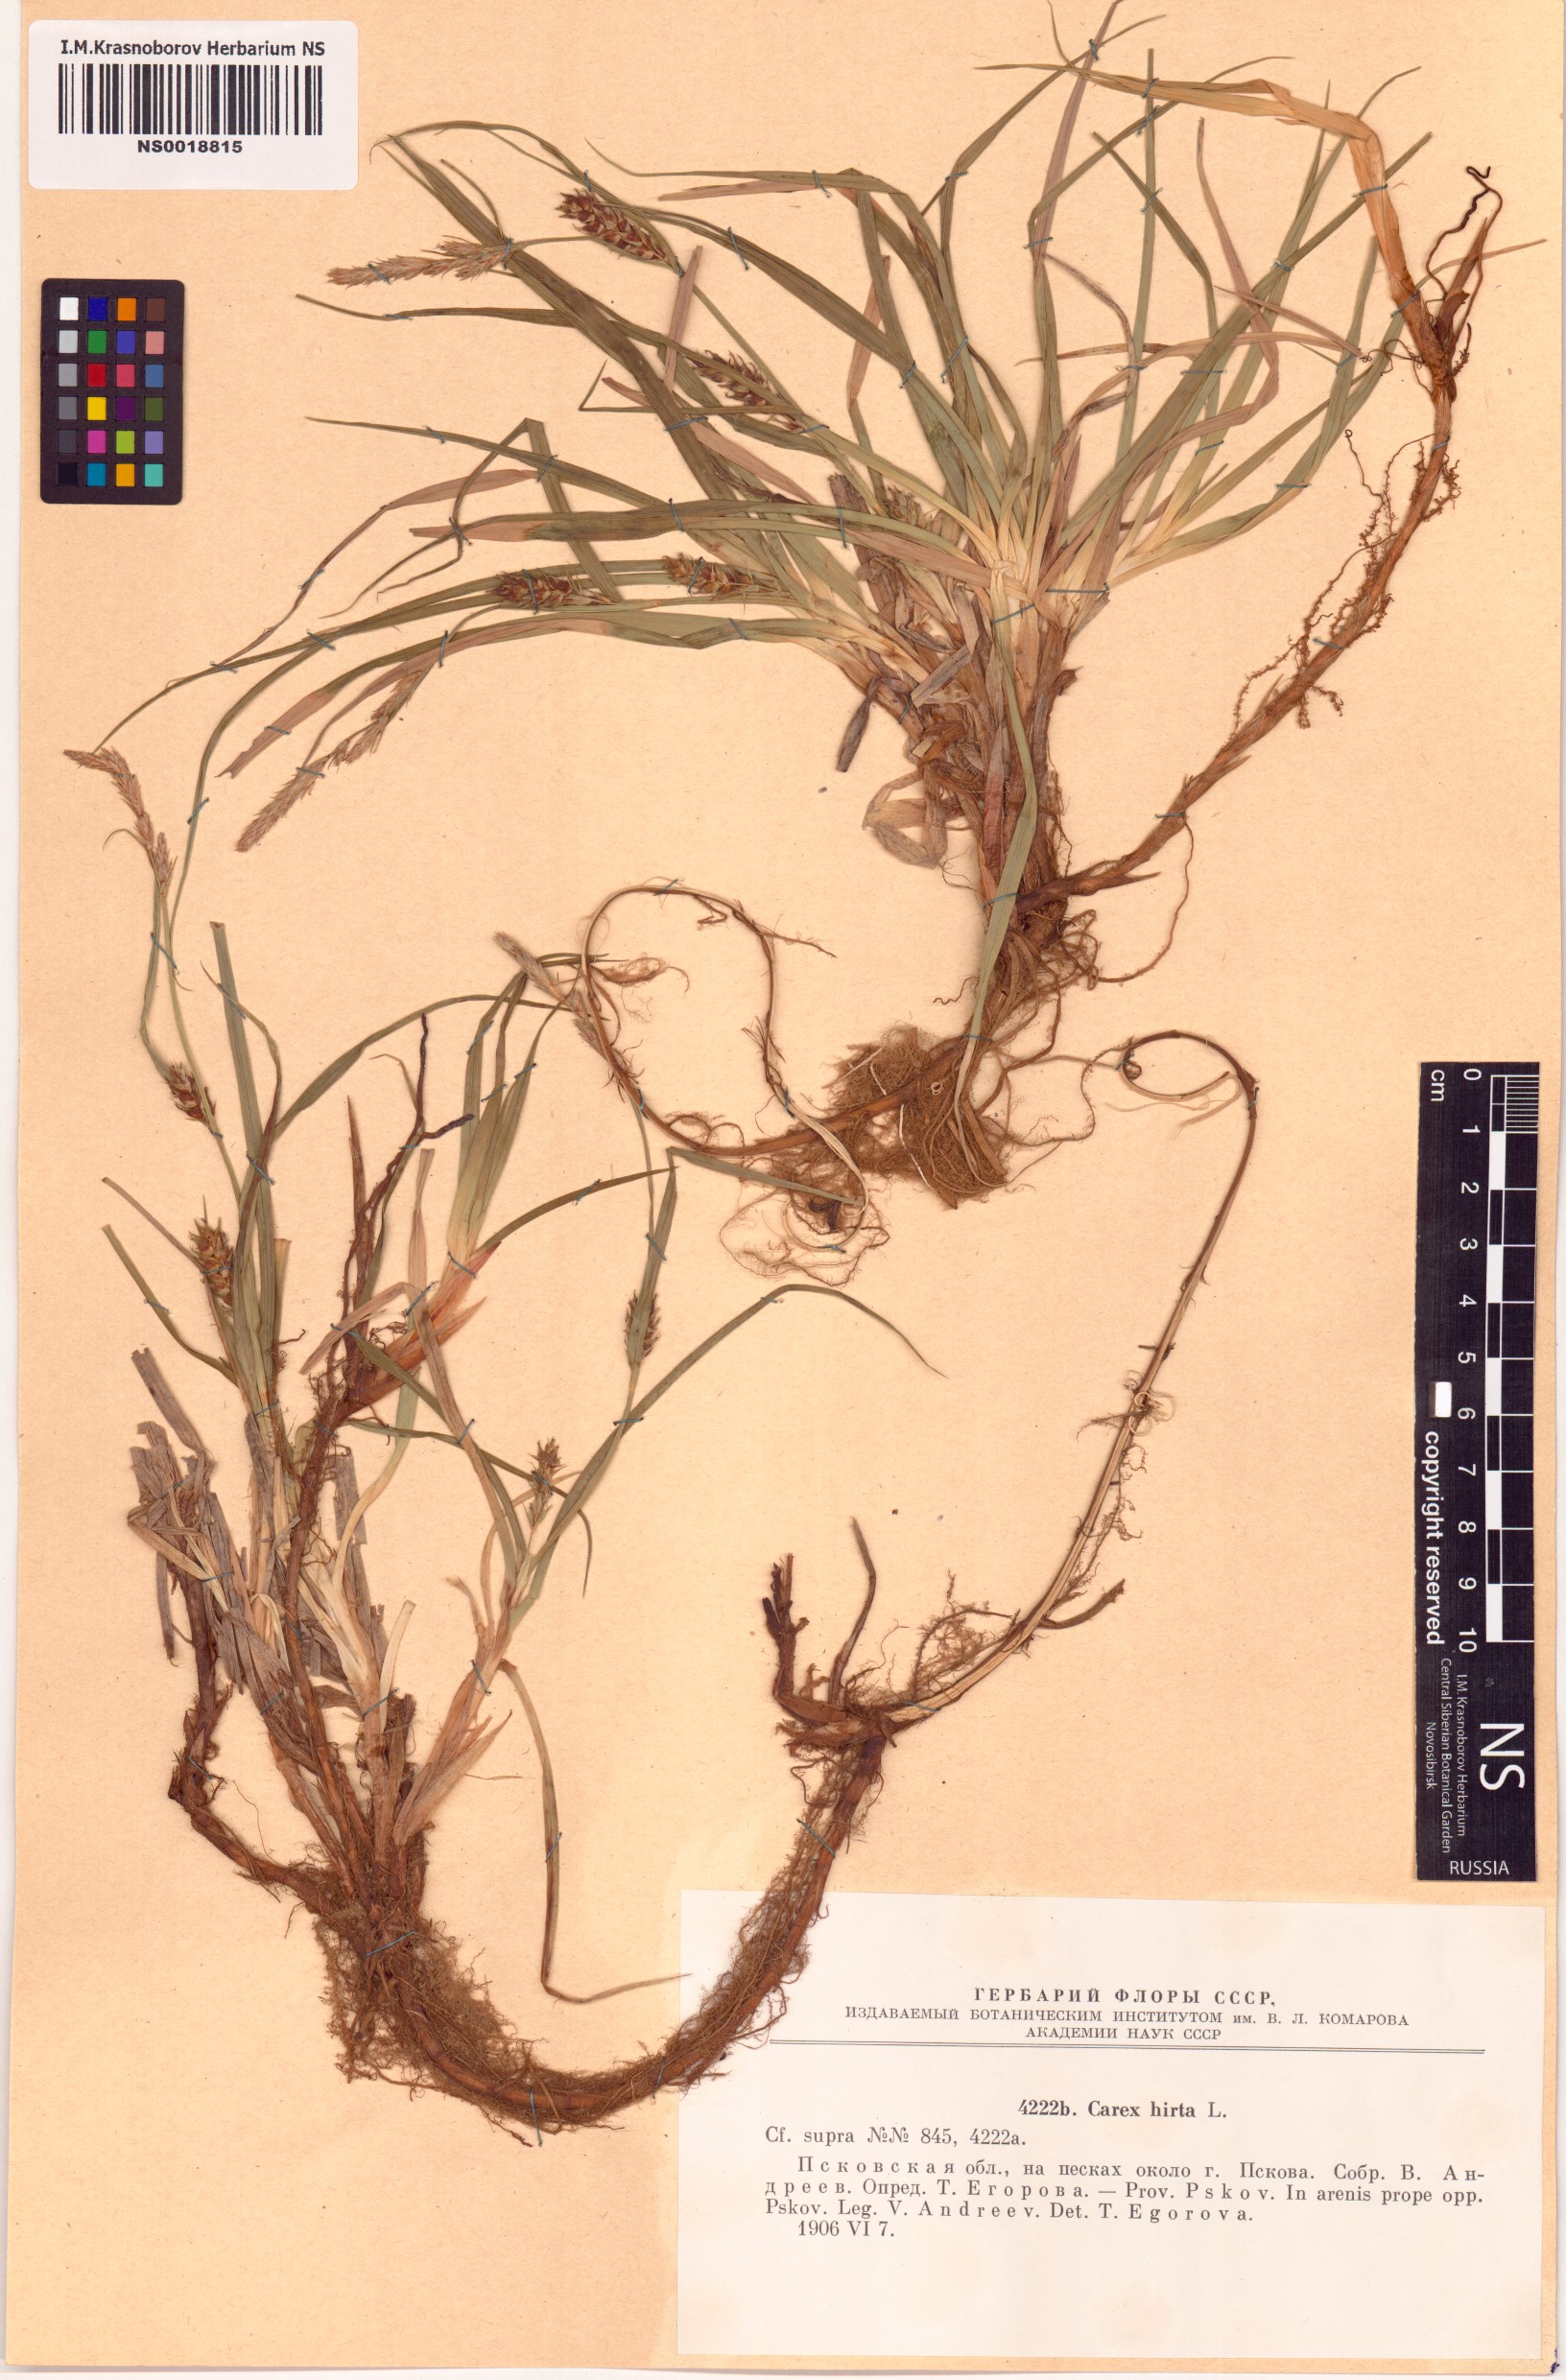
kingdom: Plantae
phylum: Tracheophyta
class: Liliopsida
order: Poales
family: Cyperaceae
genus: Carex
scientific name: Carex hirta
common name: Hairy sedge
